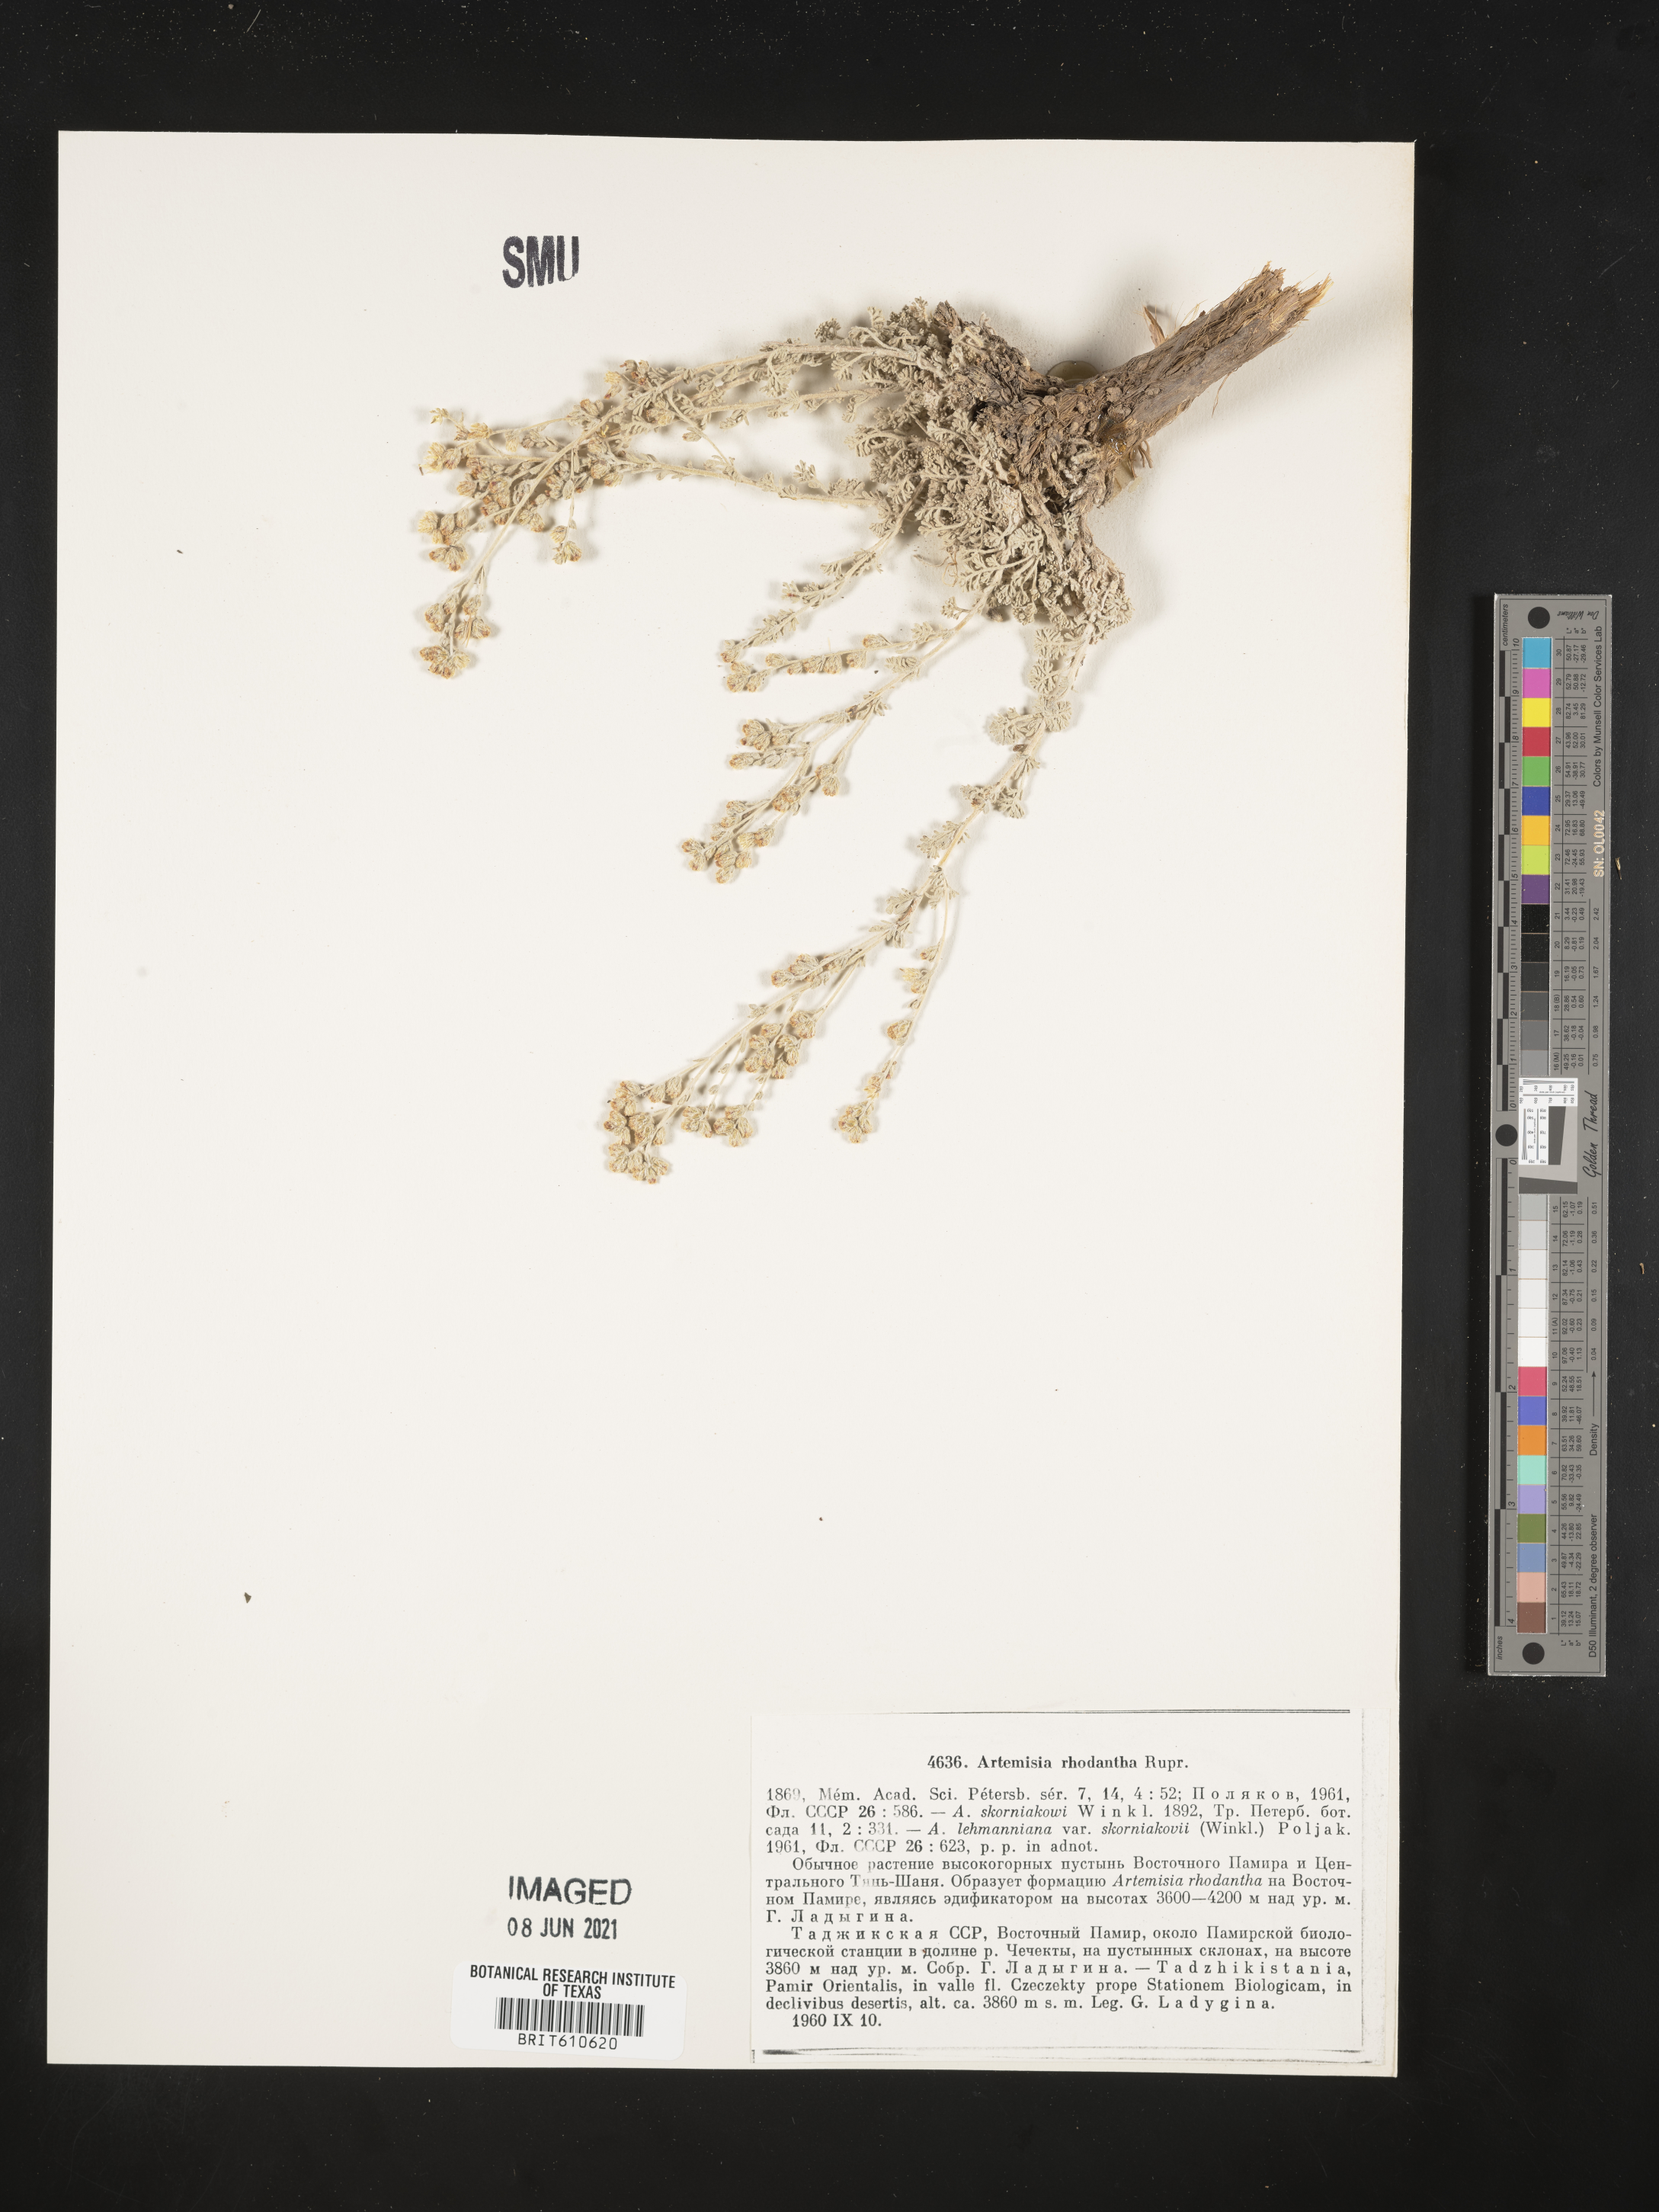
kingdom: Plantae
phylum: Tracheophyta
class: Magnoliopsida
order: Asterales
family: Asteraceae
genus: Artemisia
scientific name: Artemisia rhodantha
